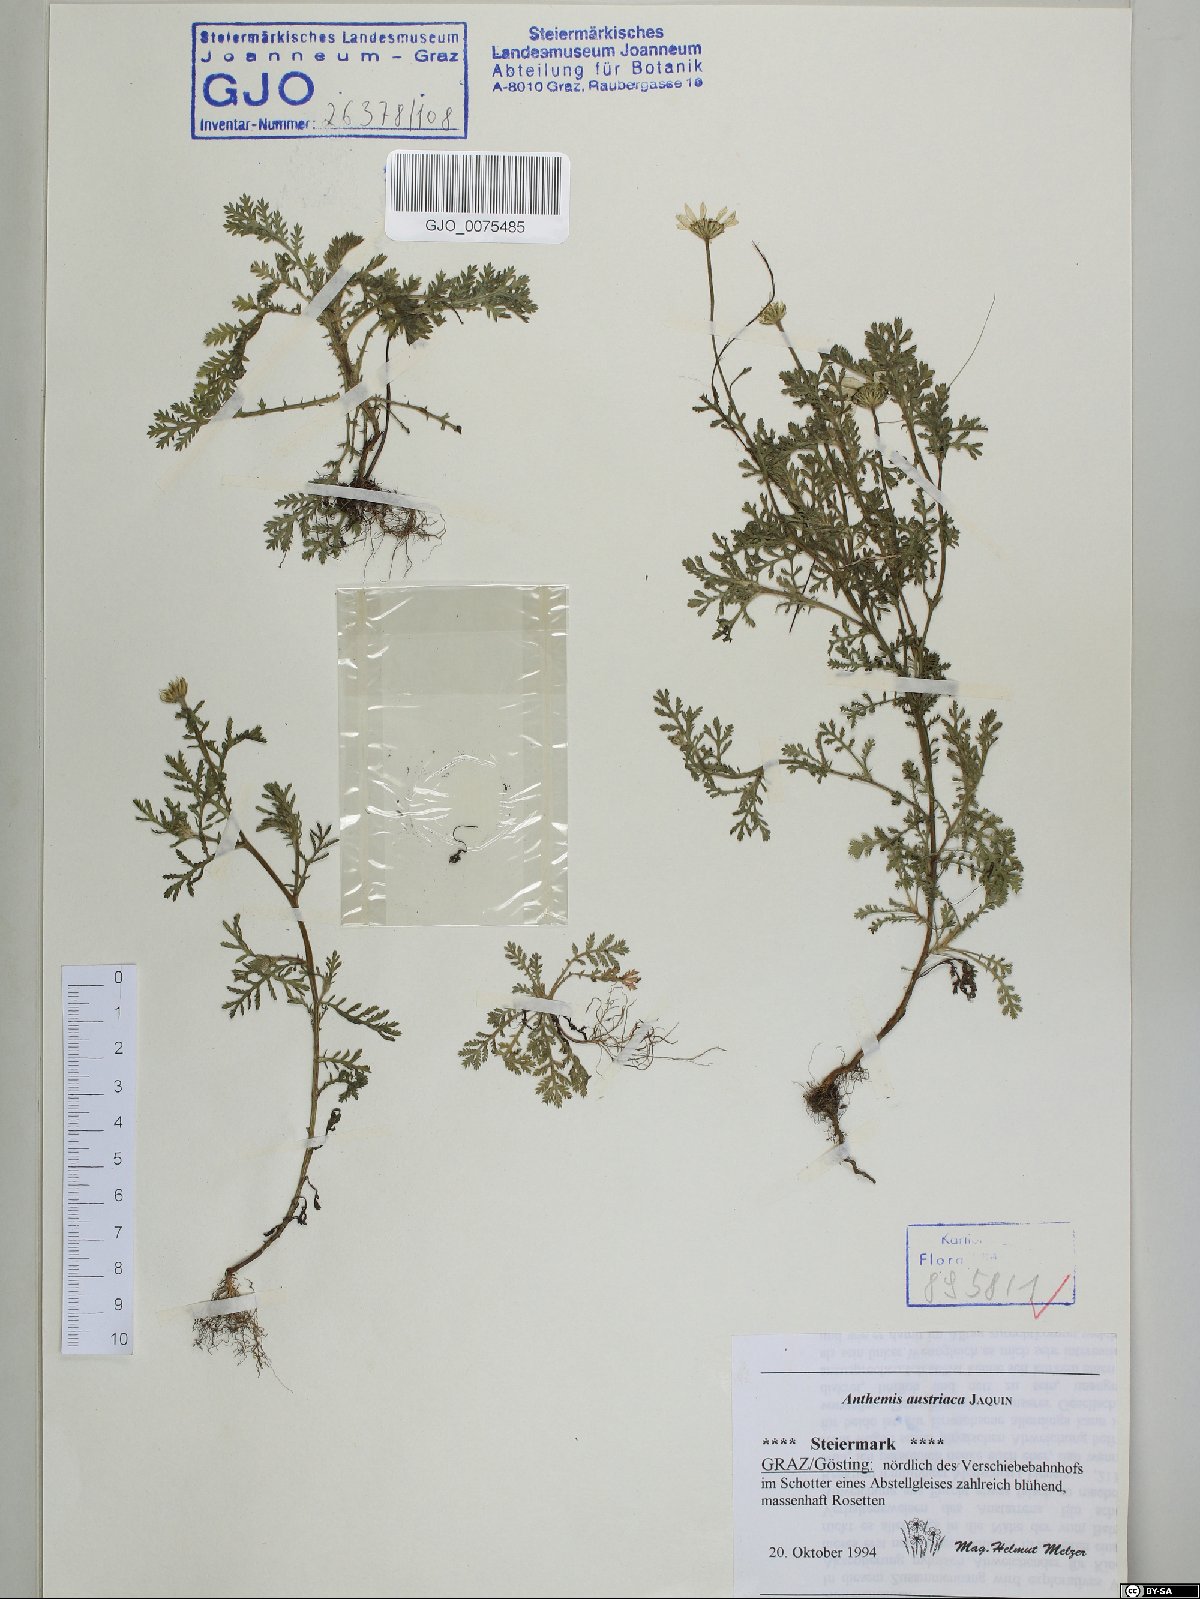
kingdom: Plantae
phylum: Tracheophyta
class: Magnoliopsida
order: Asterales
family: Asteraceae
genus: Cota
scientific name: Cota austriaca
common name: Austrian chamomile
